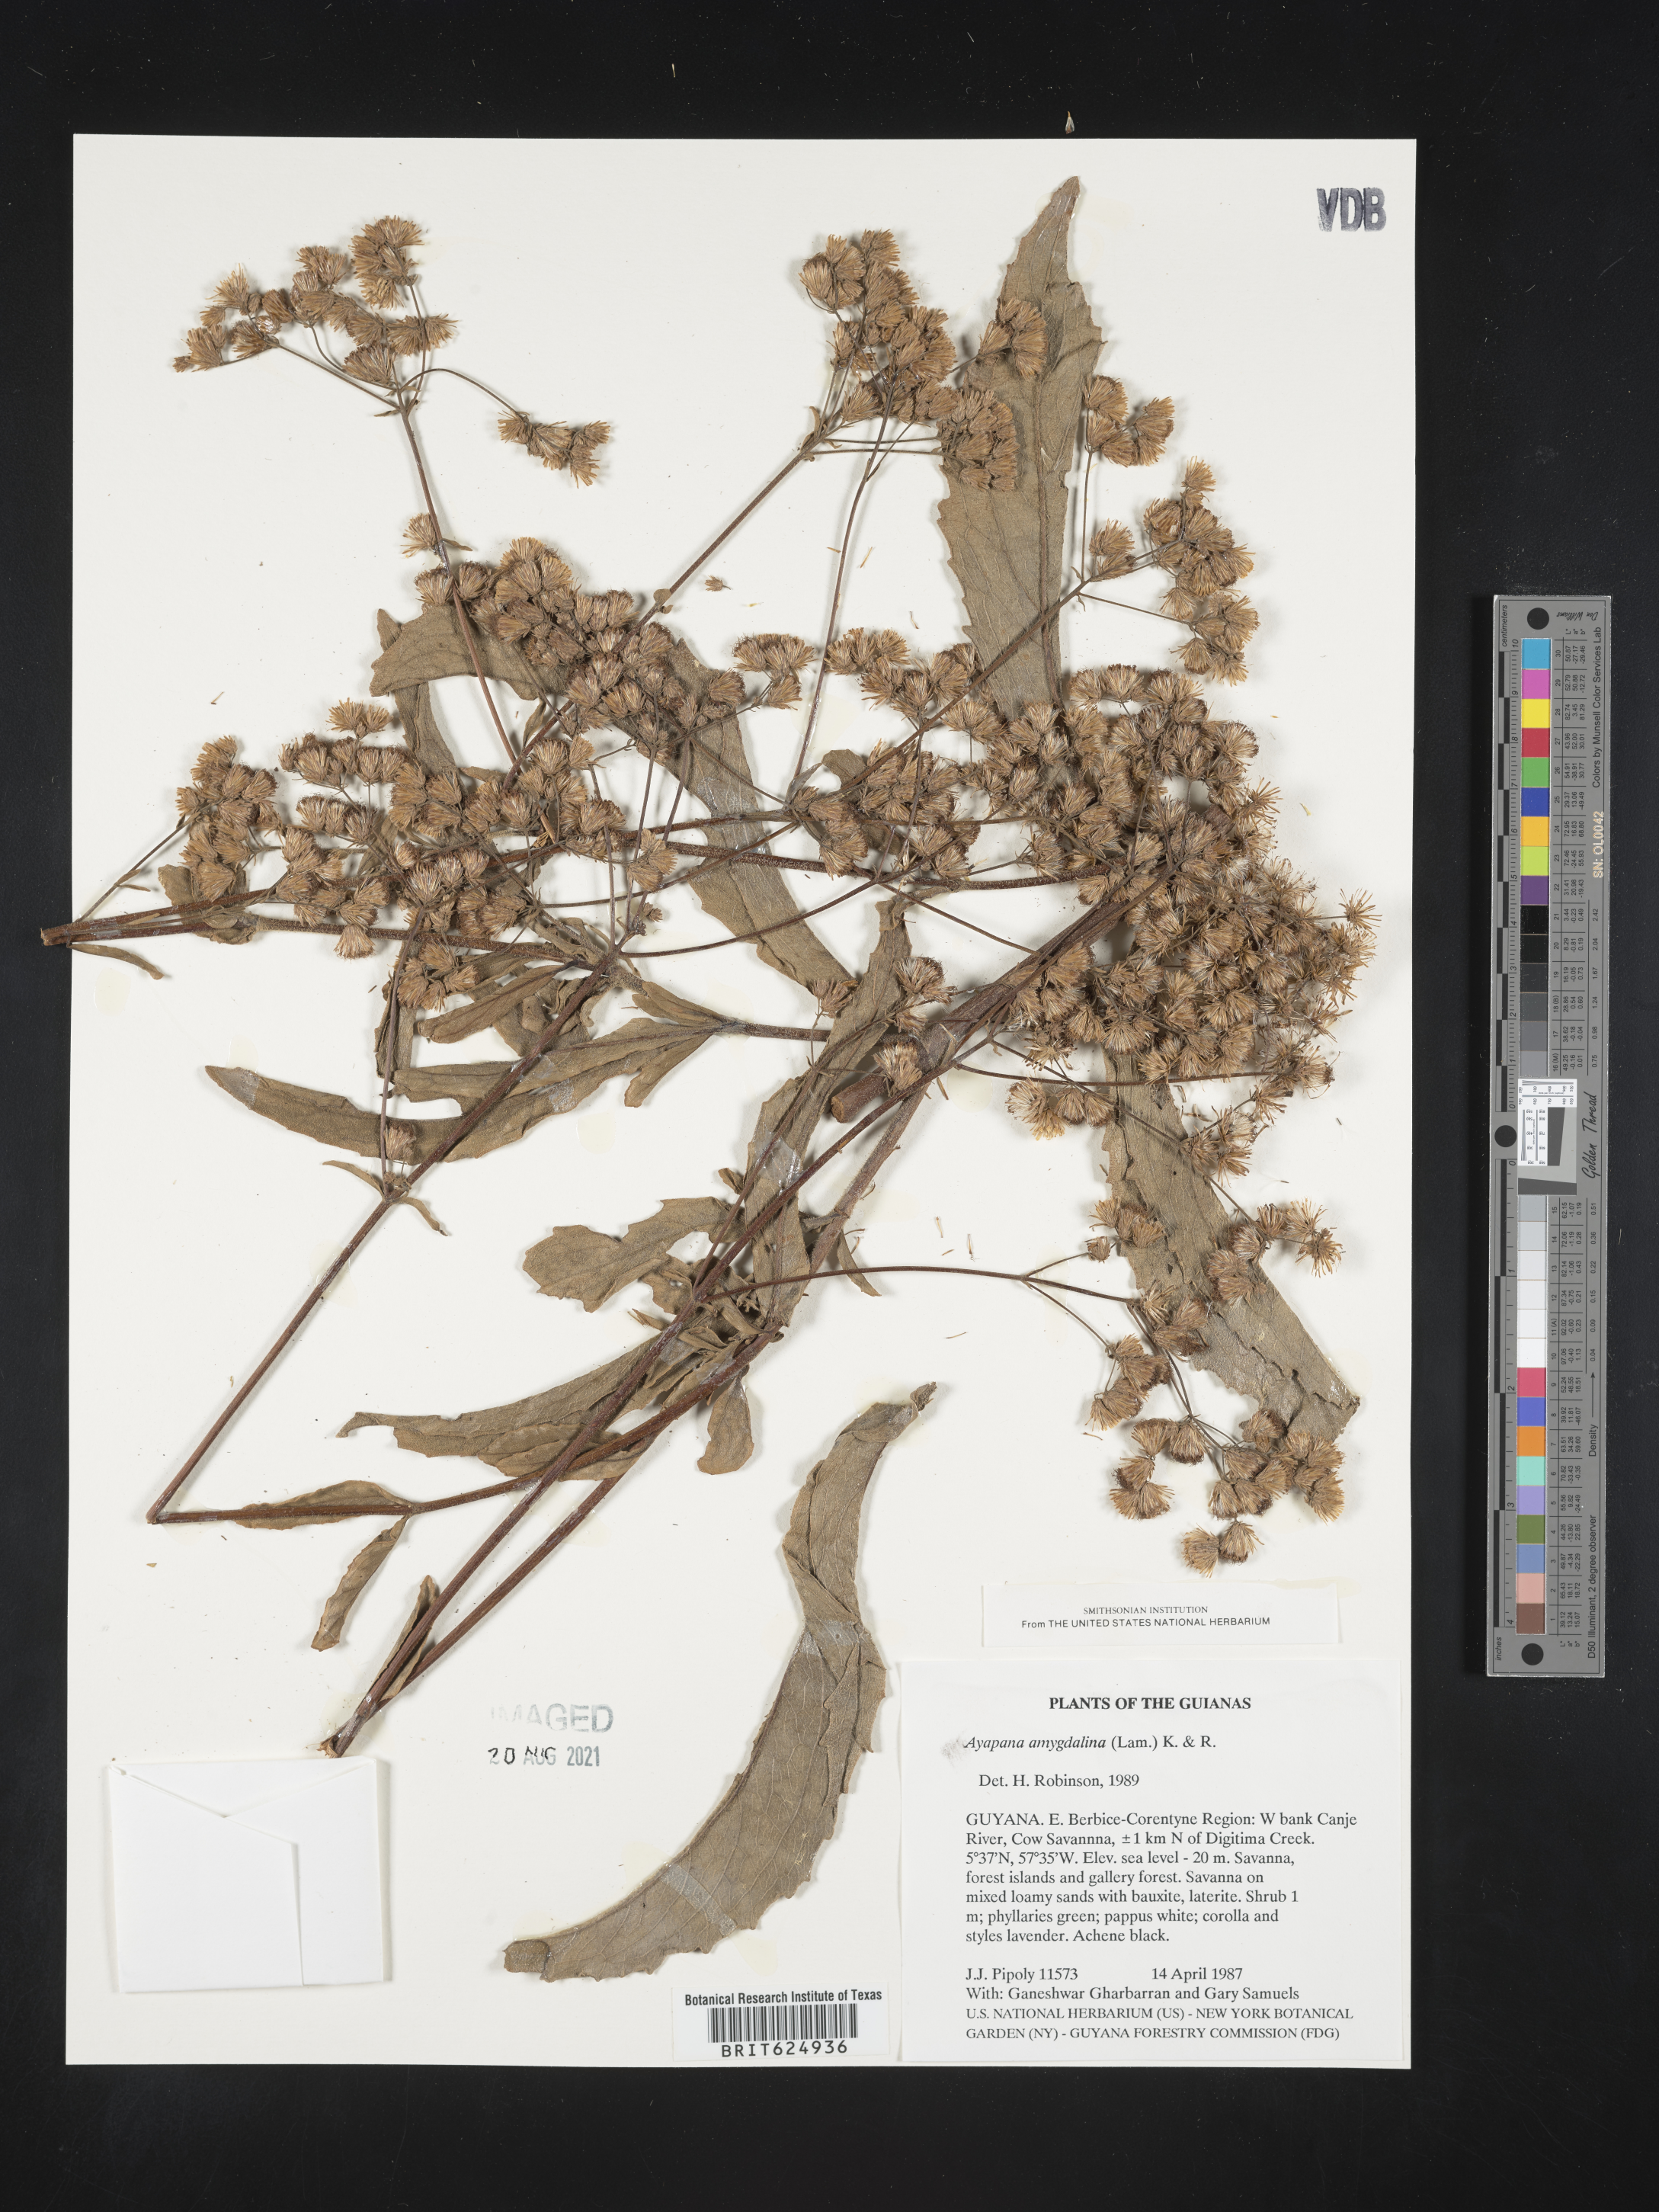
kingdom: Plantae
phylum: Tracheophyta
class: Magnoliopsida
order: Asterales
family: Asteraceae
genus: Ayapana
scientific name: Ayapana amygdalina
